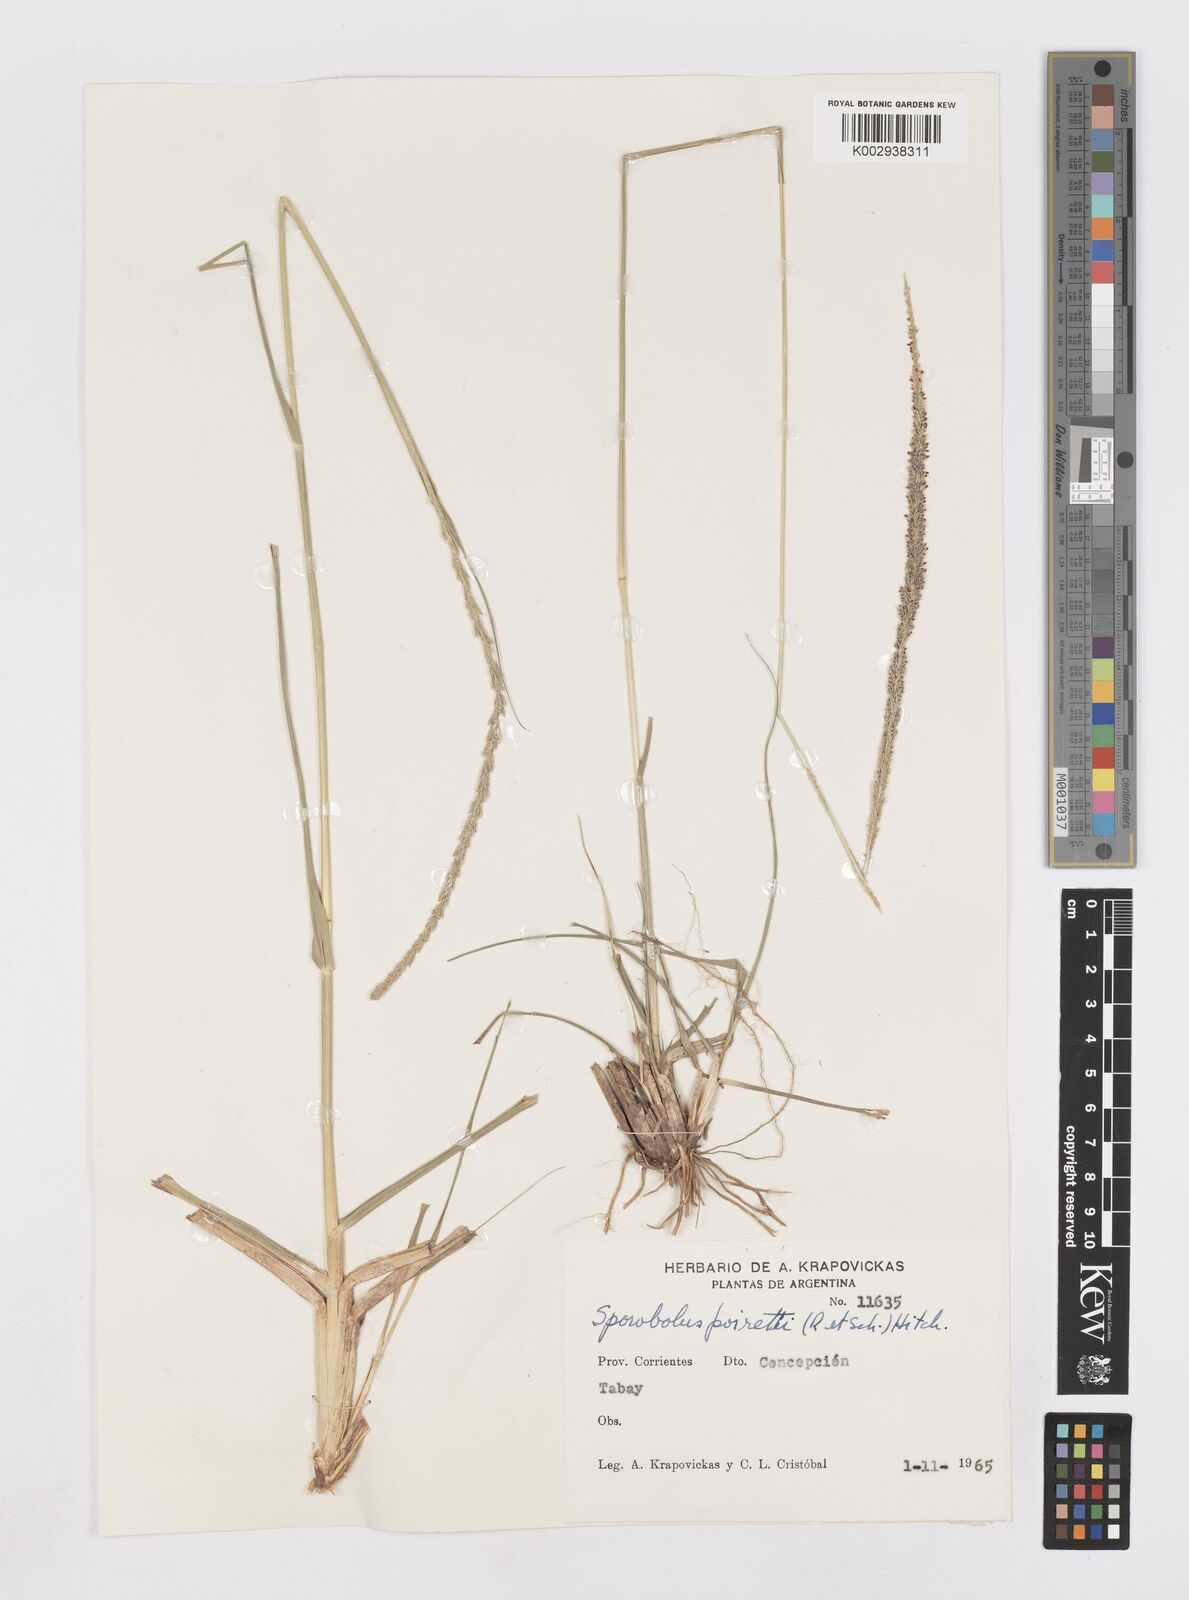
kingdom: Plantae
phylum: Tracheophyta
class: Liliopsida
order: Poales
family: Poaceae
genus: Sporobolus
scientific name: Sporobolus indicus
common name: Smut grass
